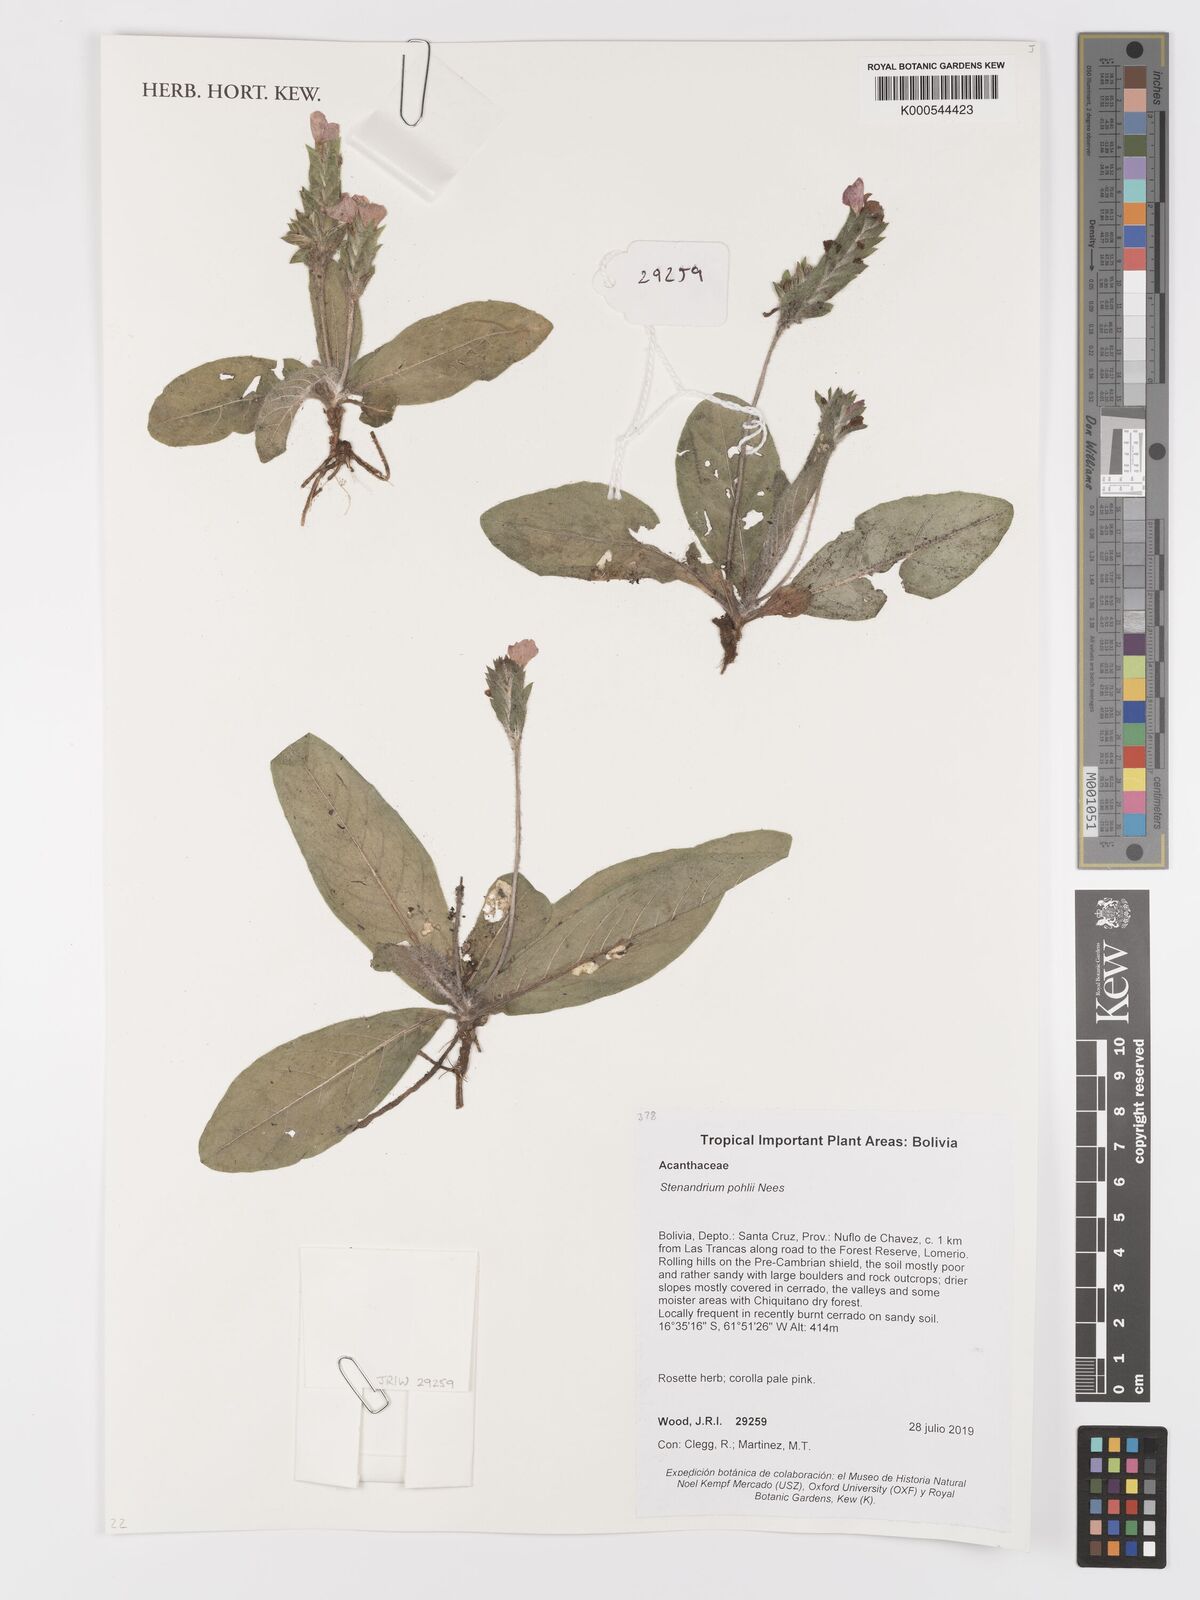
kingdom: Plantae
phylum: Tracheophyta
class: Magnoliopsida
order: Lamiales
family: Acanthaceae
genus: Stenandrium
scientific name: Stenandrium pohlii
